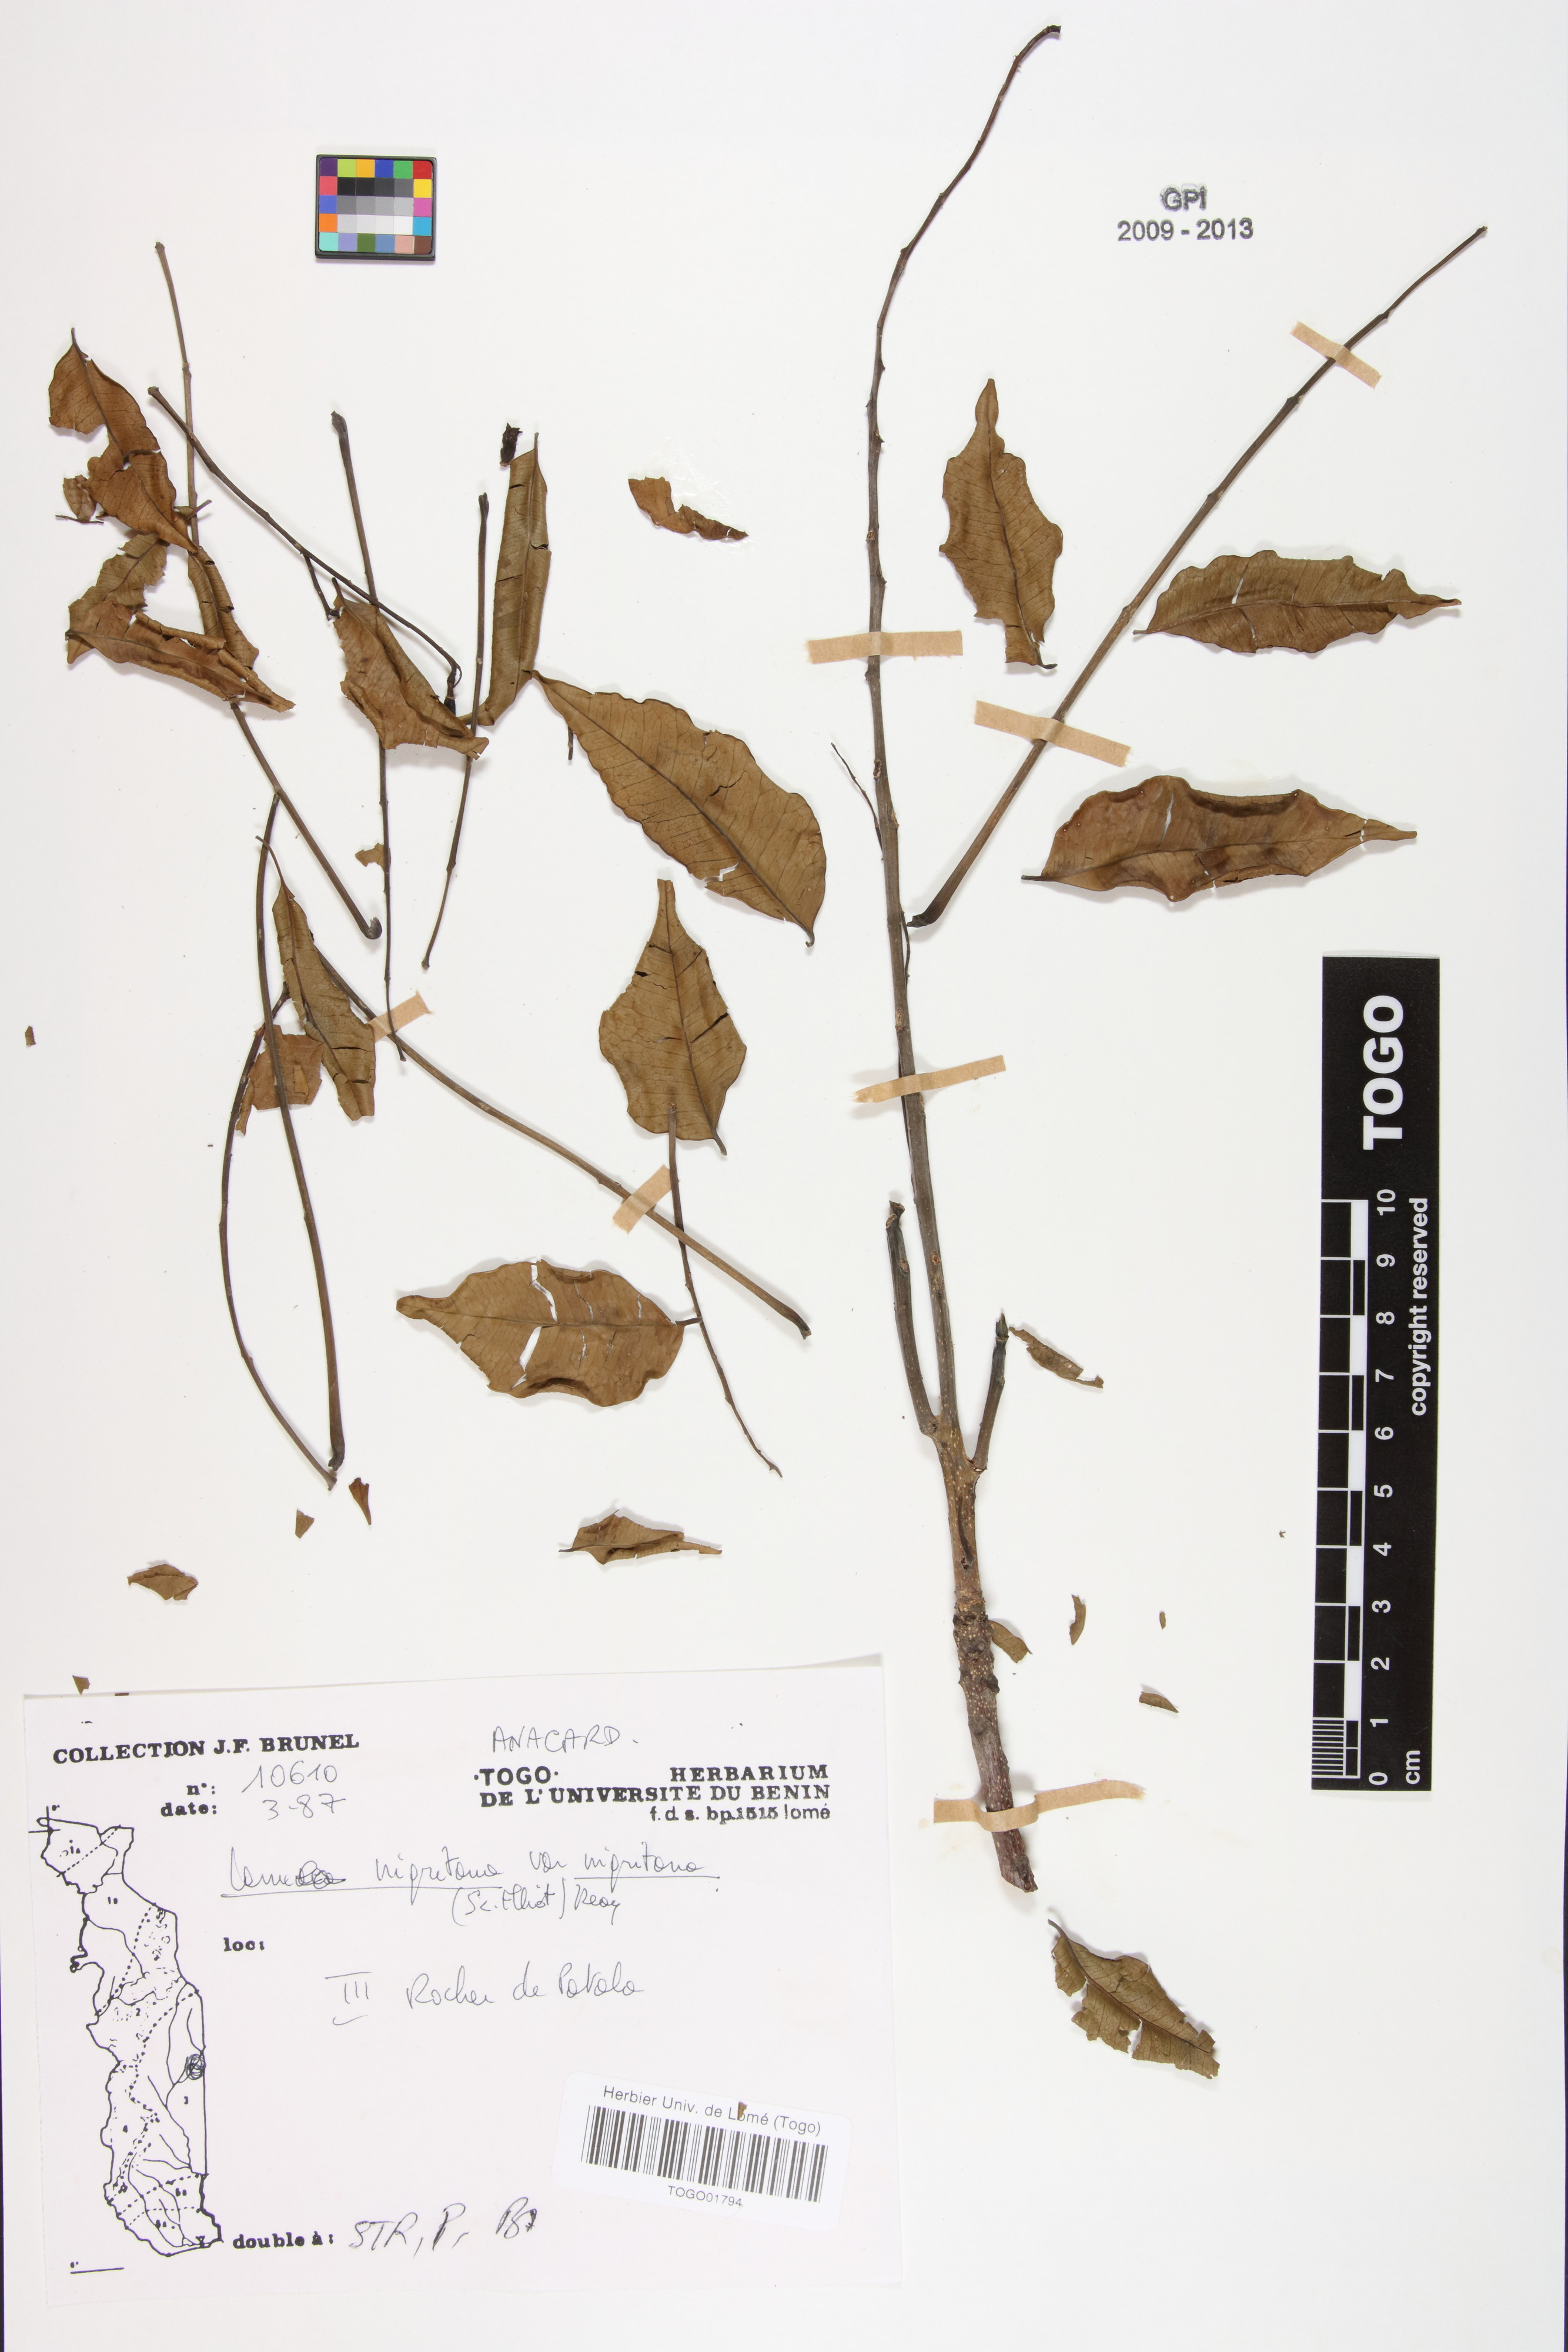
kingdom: Plantae
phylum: Tracheophyta
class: Magnoliopsida
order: Sapindales
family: Anacardiaceae
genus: Lannea
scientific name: Lannea nigritana
